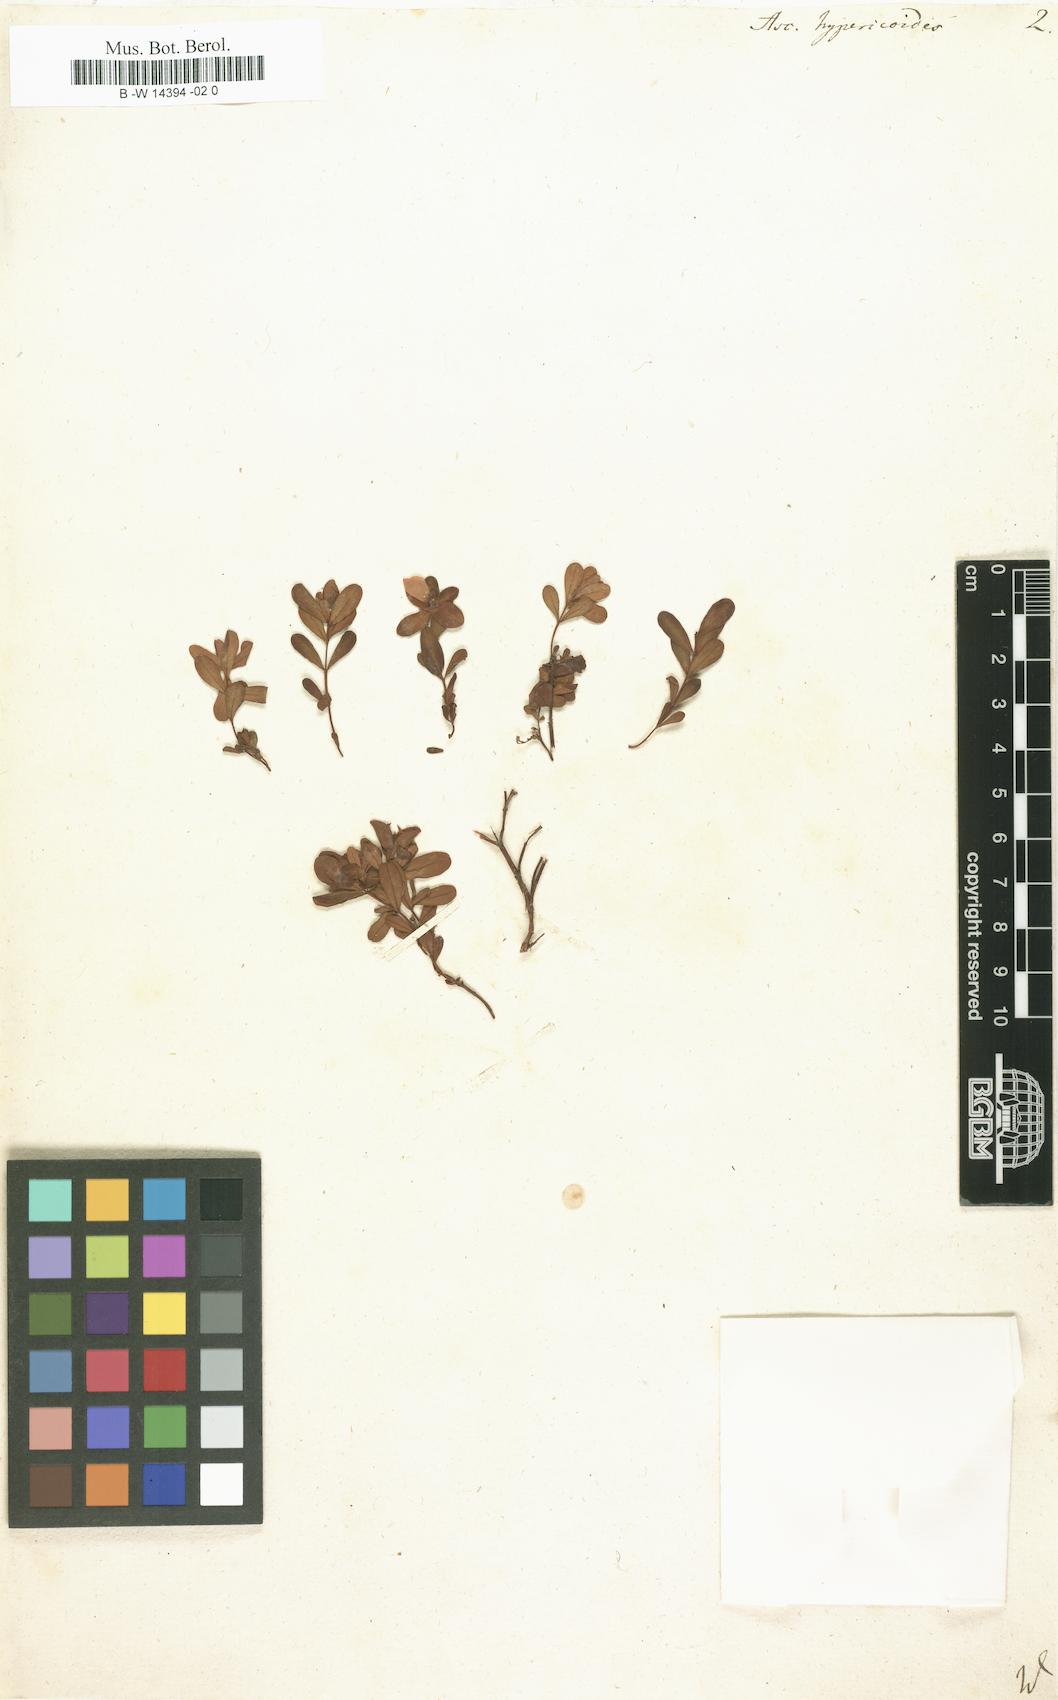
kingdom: Plantae
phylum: Tracheophyta
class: Magnoliopsida
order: Malpighiales
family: Hypericaceae
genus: Hypericum
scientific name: Hypericum hypericoides
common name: St. andrew's cross
